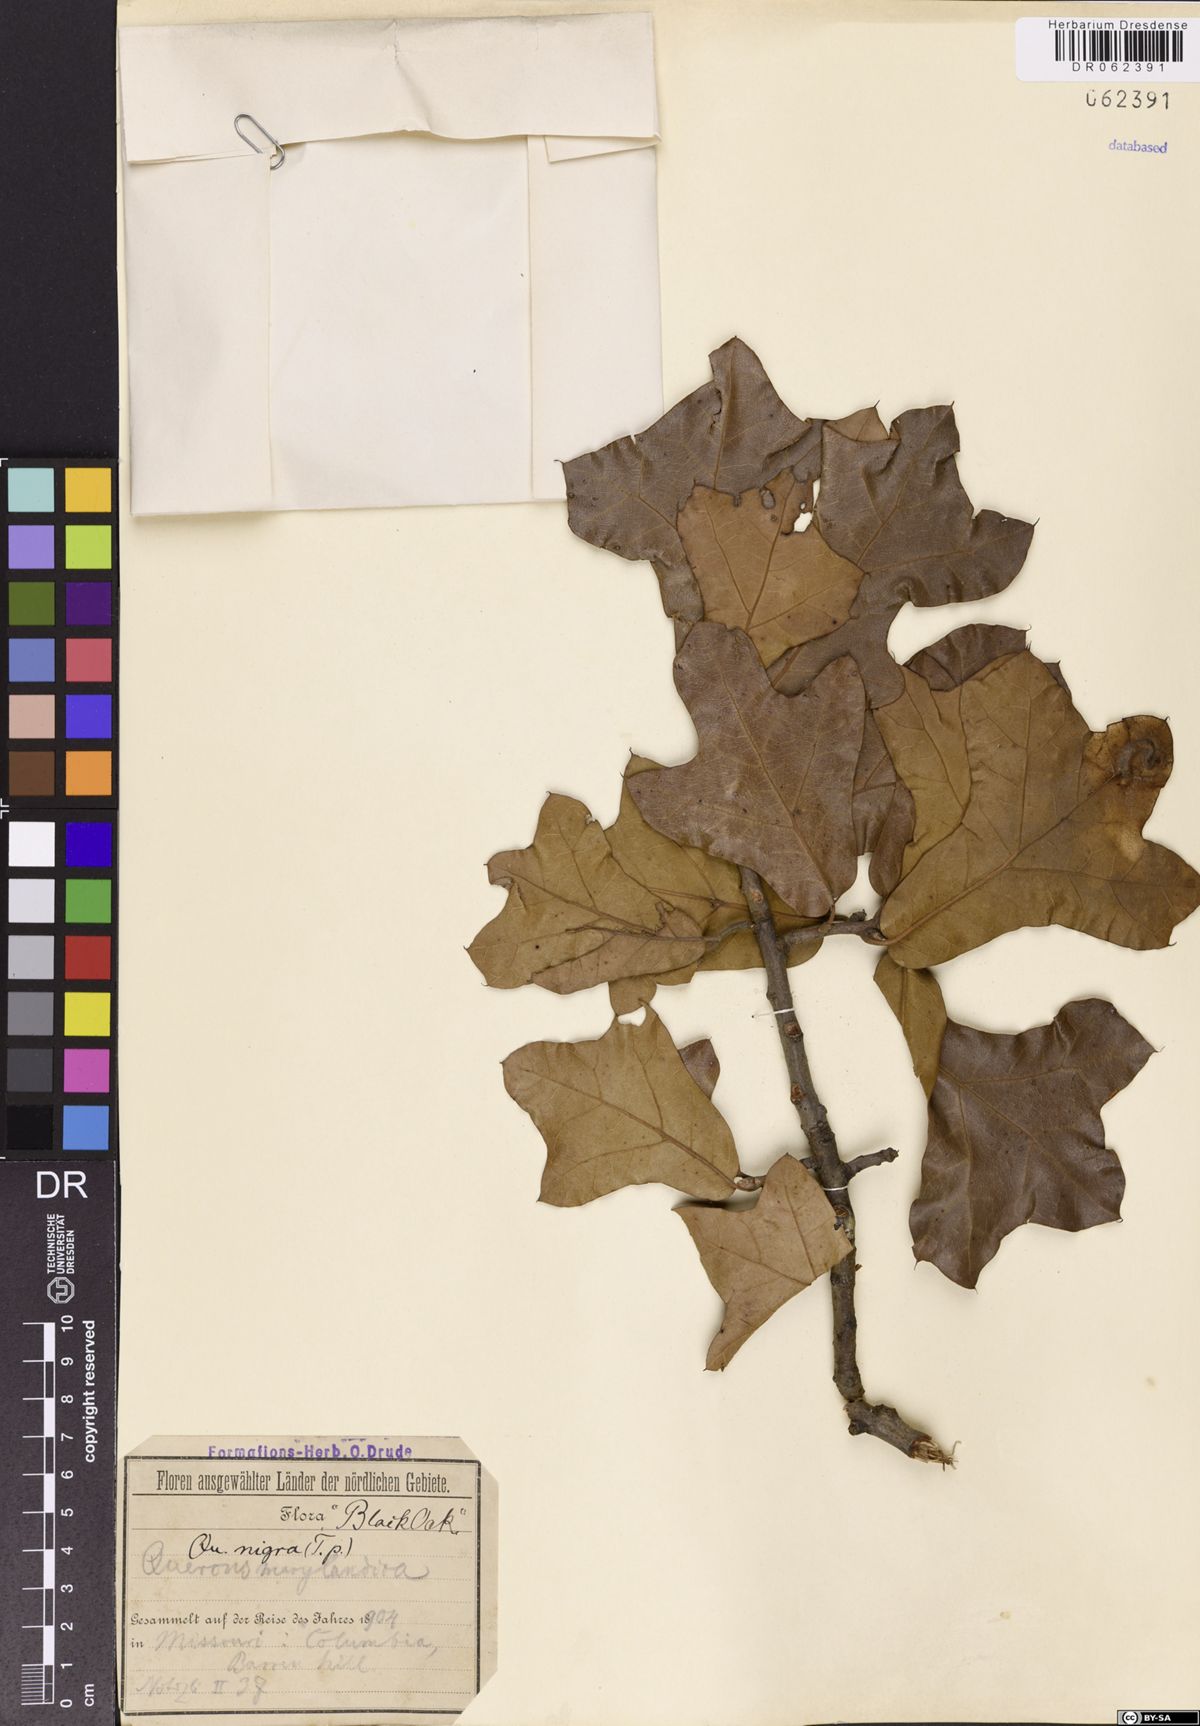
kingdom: Plantae
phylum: Tracheophyta
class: Magnoliopsida
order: Fagales
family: Fagaceae
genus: Quercus
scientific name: Quercus nigra
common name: Water oak
